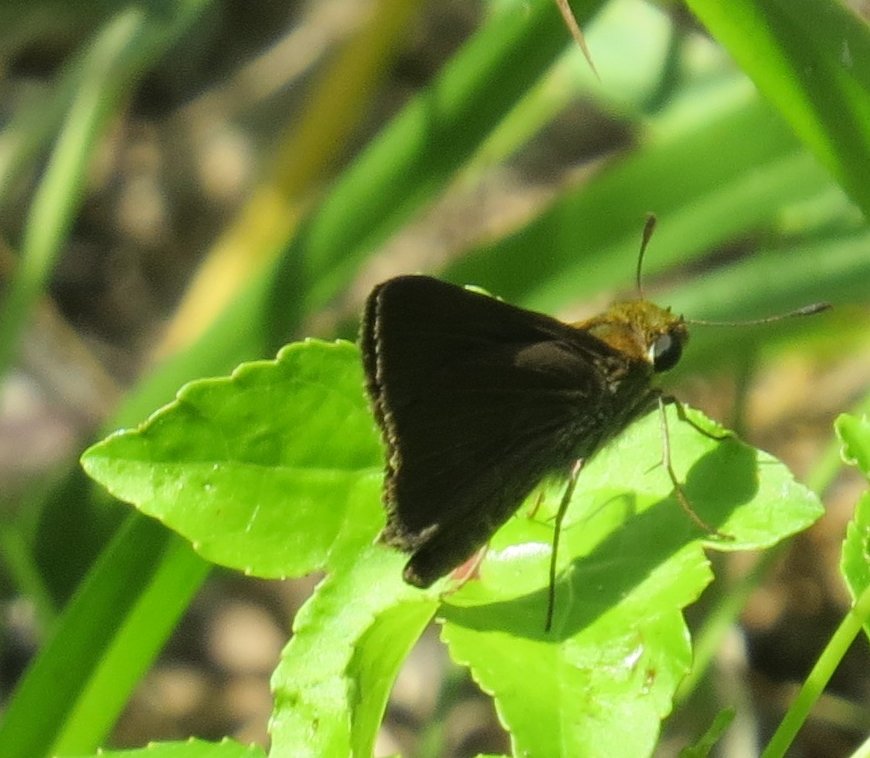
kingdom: Animalia
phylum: Arthropoda
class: Insecta
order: Lepidoptera
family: Hesperiidae
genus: Lerema
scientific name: Lerema accius
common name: Clouded Skipper
